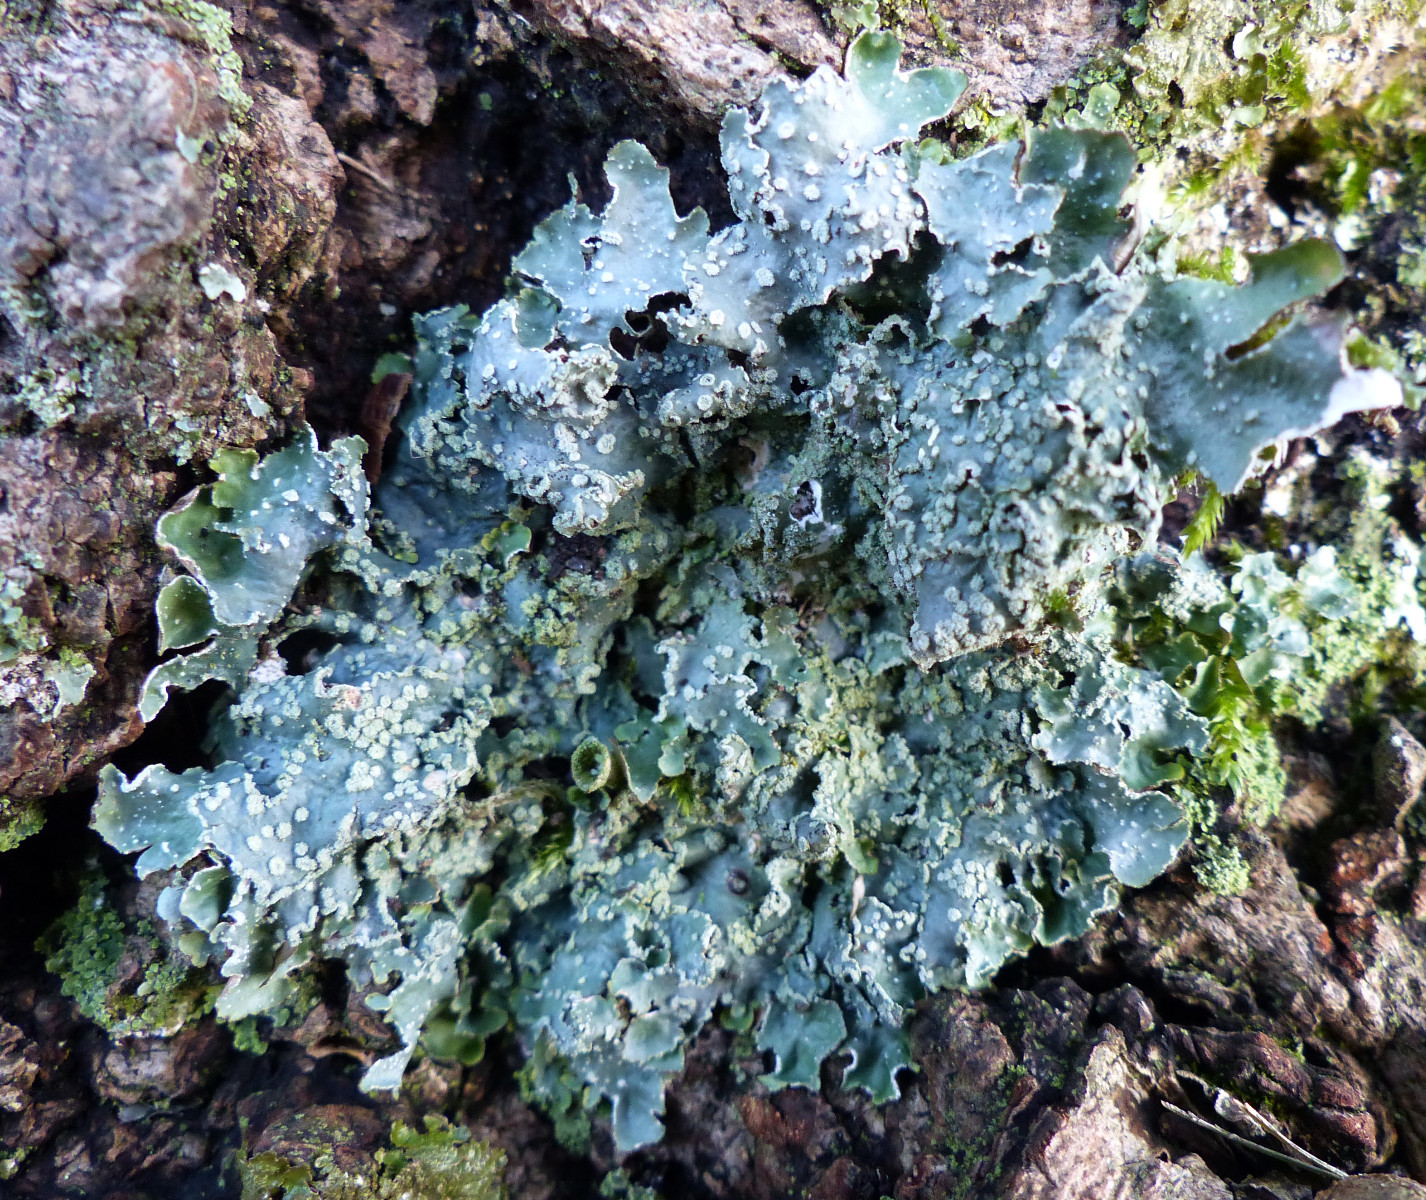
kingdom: Fungi
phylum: Ascomycota
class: Lecanoromycetes
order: Lecanorales
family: Parmeliaceae
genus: Punctelia
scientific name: Punctelia subrudecta
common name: punkt-skållav
